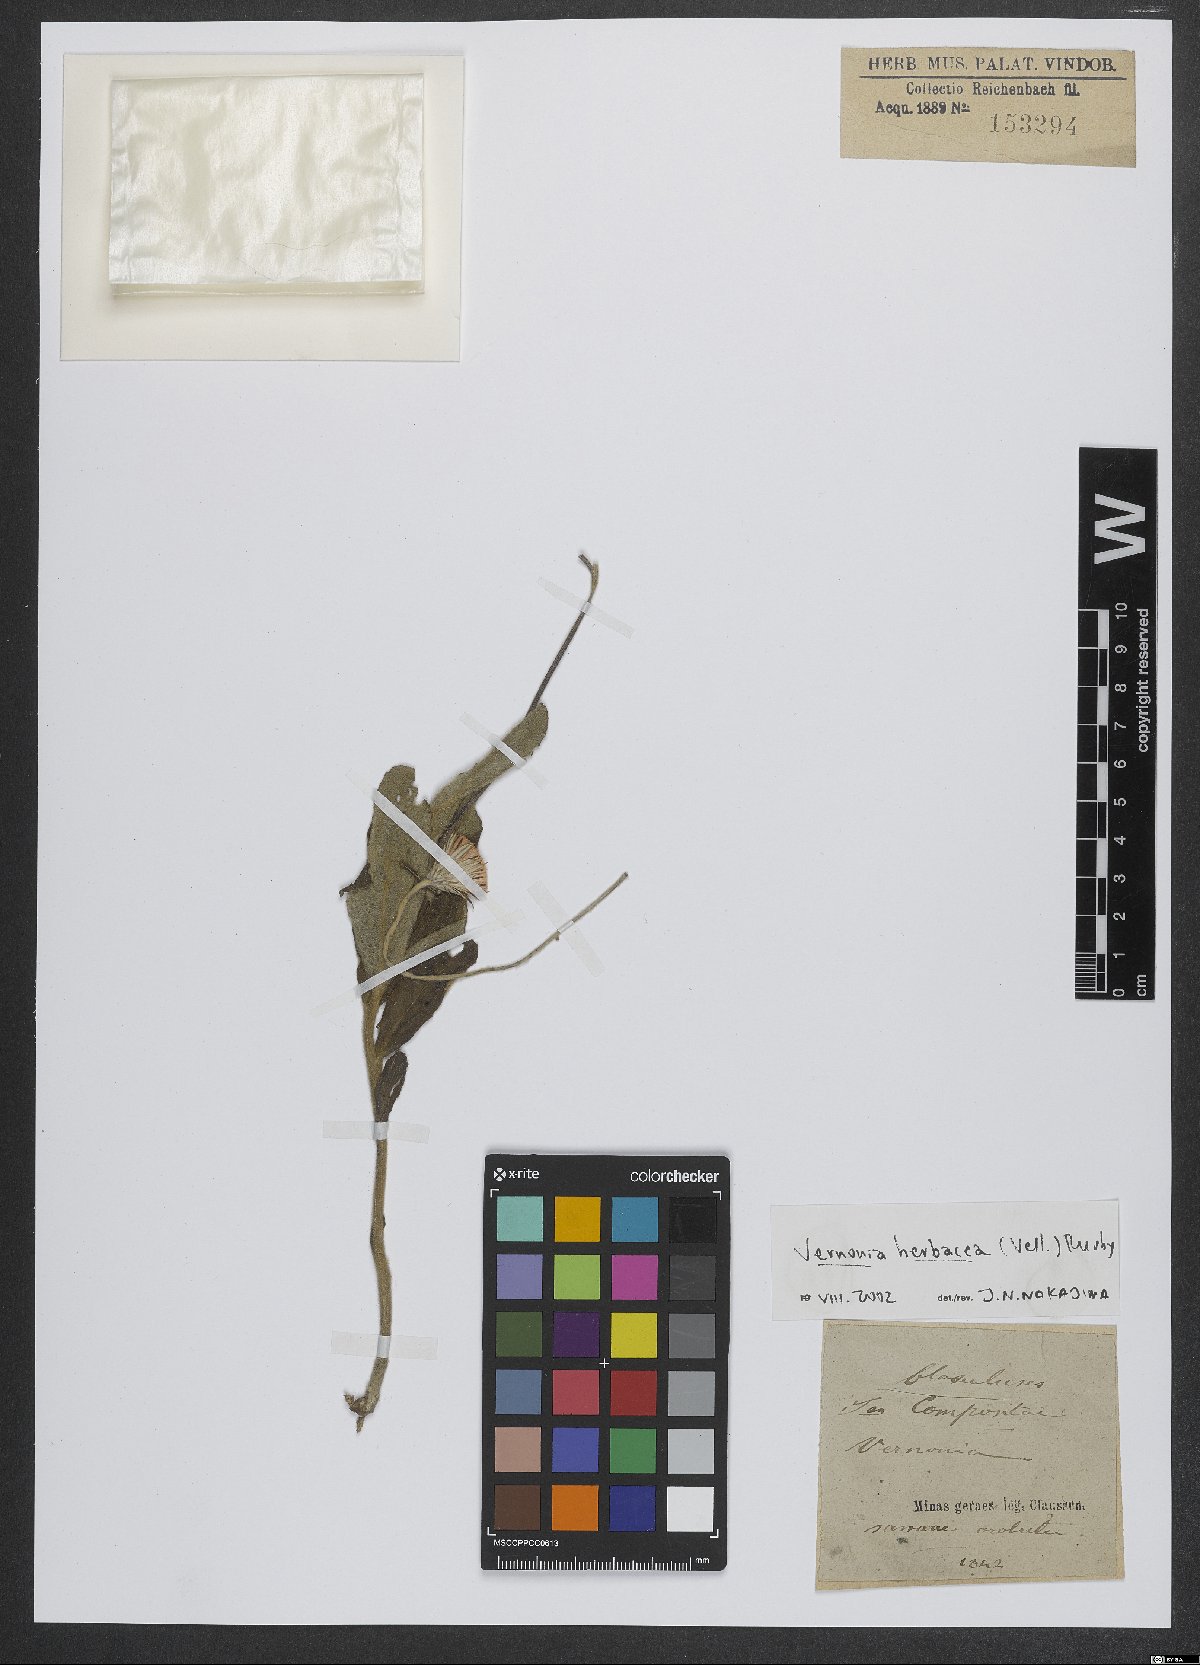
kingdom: Plantae
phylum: Tracheophyta
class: Magnoliopsida
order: Asterales
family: Asteraceae
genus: Chrysolaena
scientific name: Chrysolaena obovata
